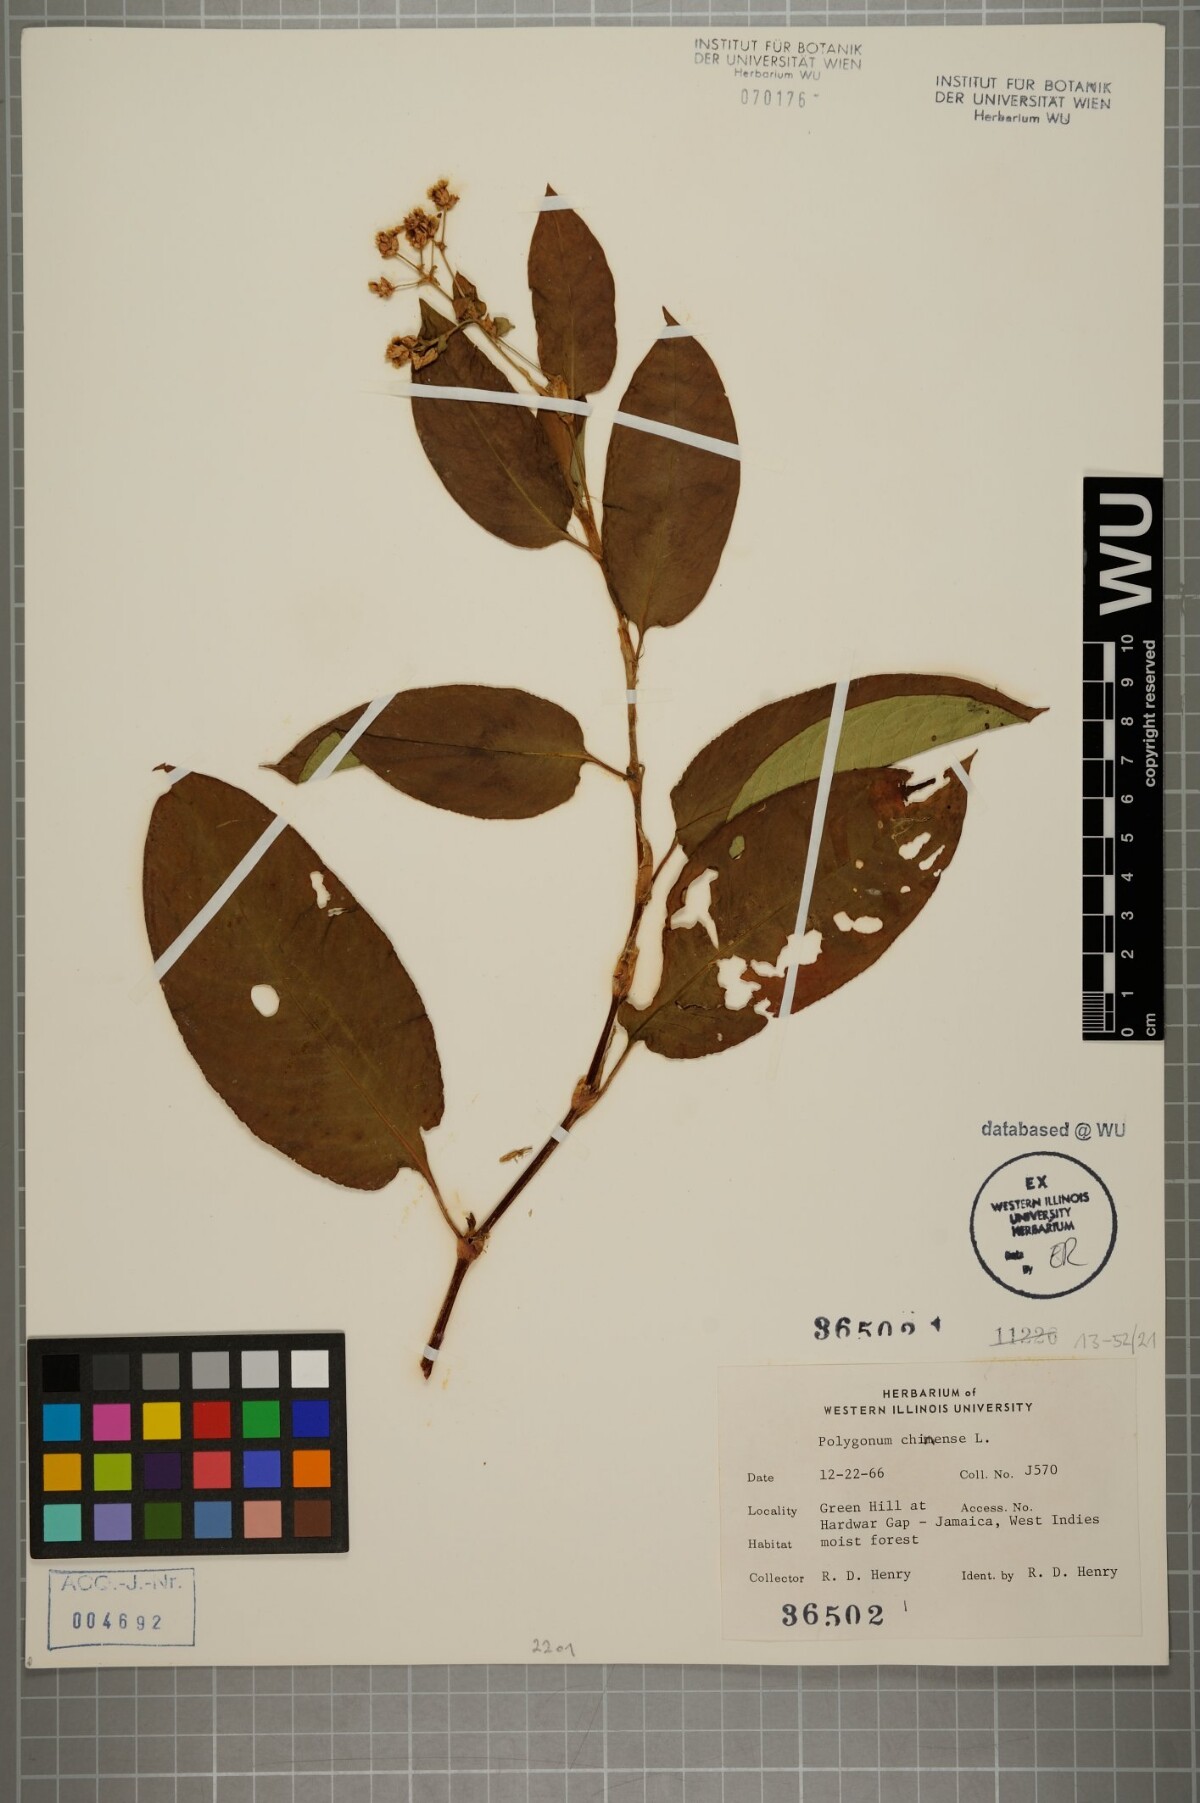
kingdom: Plantae
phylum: Tracheophyta
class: Magnoliopsida
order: Caryophyllales
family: Polygonaceae
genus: Persicaria
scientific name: Persicaria chinensis
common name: Chinese knotweed
